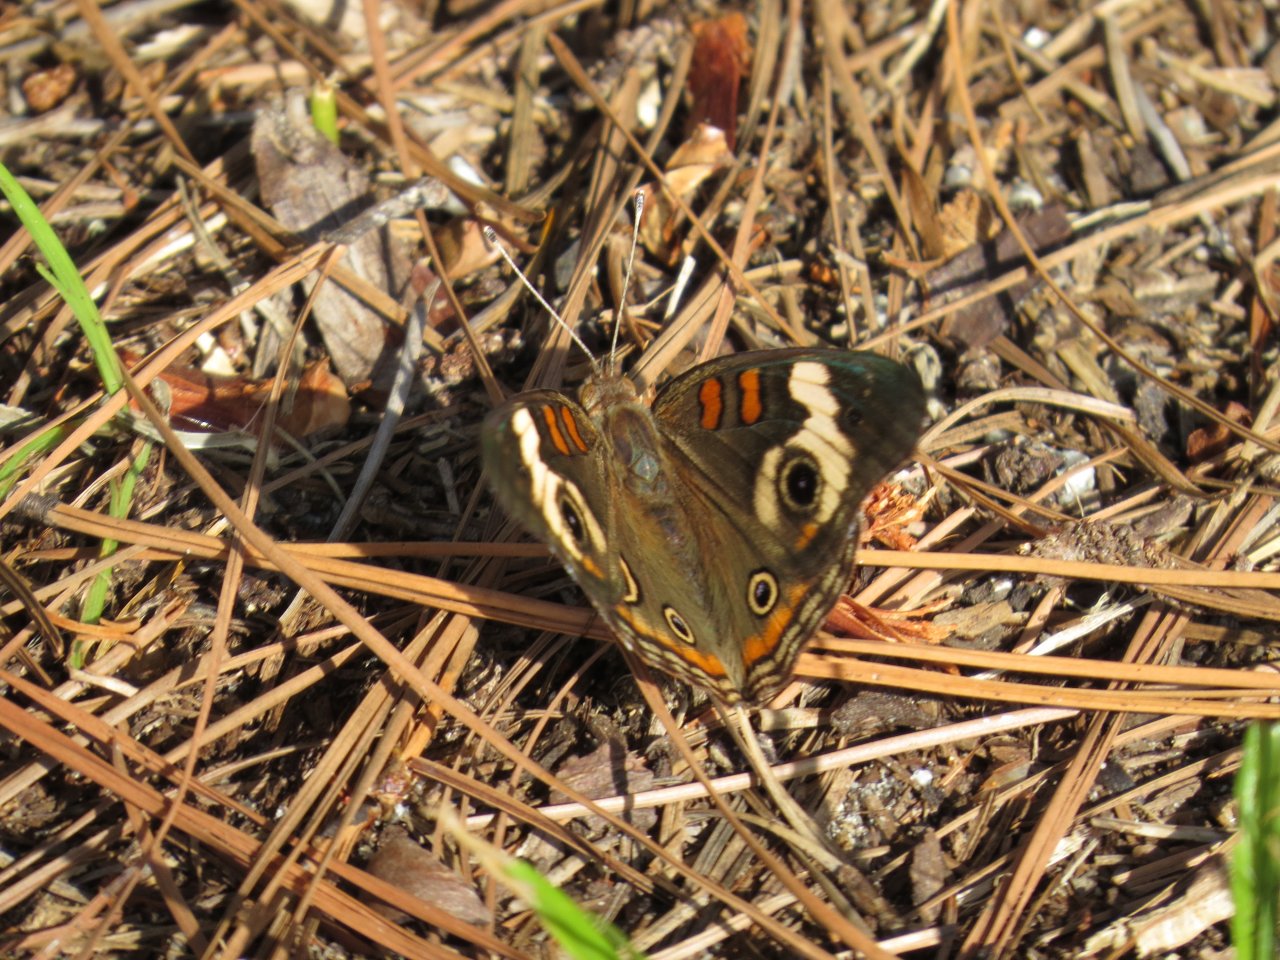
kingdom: Animalia
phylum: Arthropoda
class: Insecta
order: Lepidoptera
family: Nymphalidae
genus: Junonia
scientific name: Junonia coenia
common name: Common Buckeye
